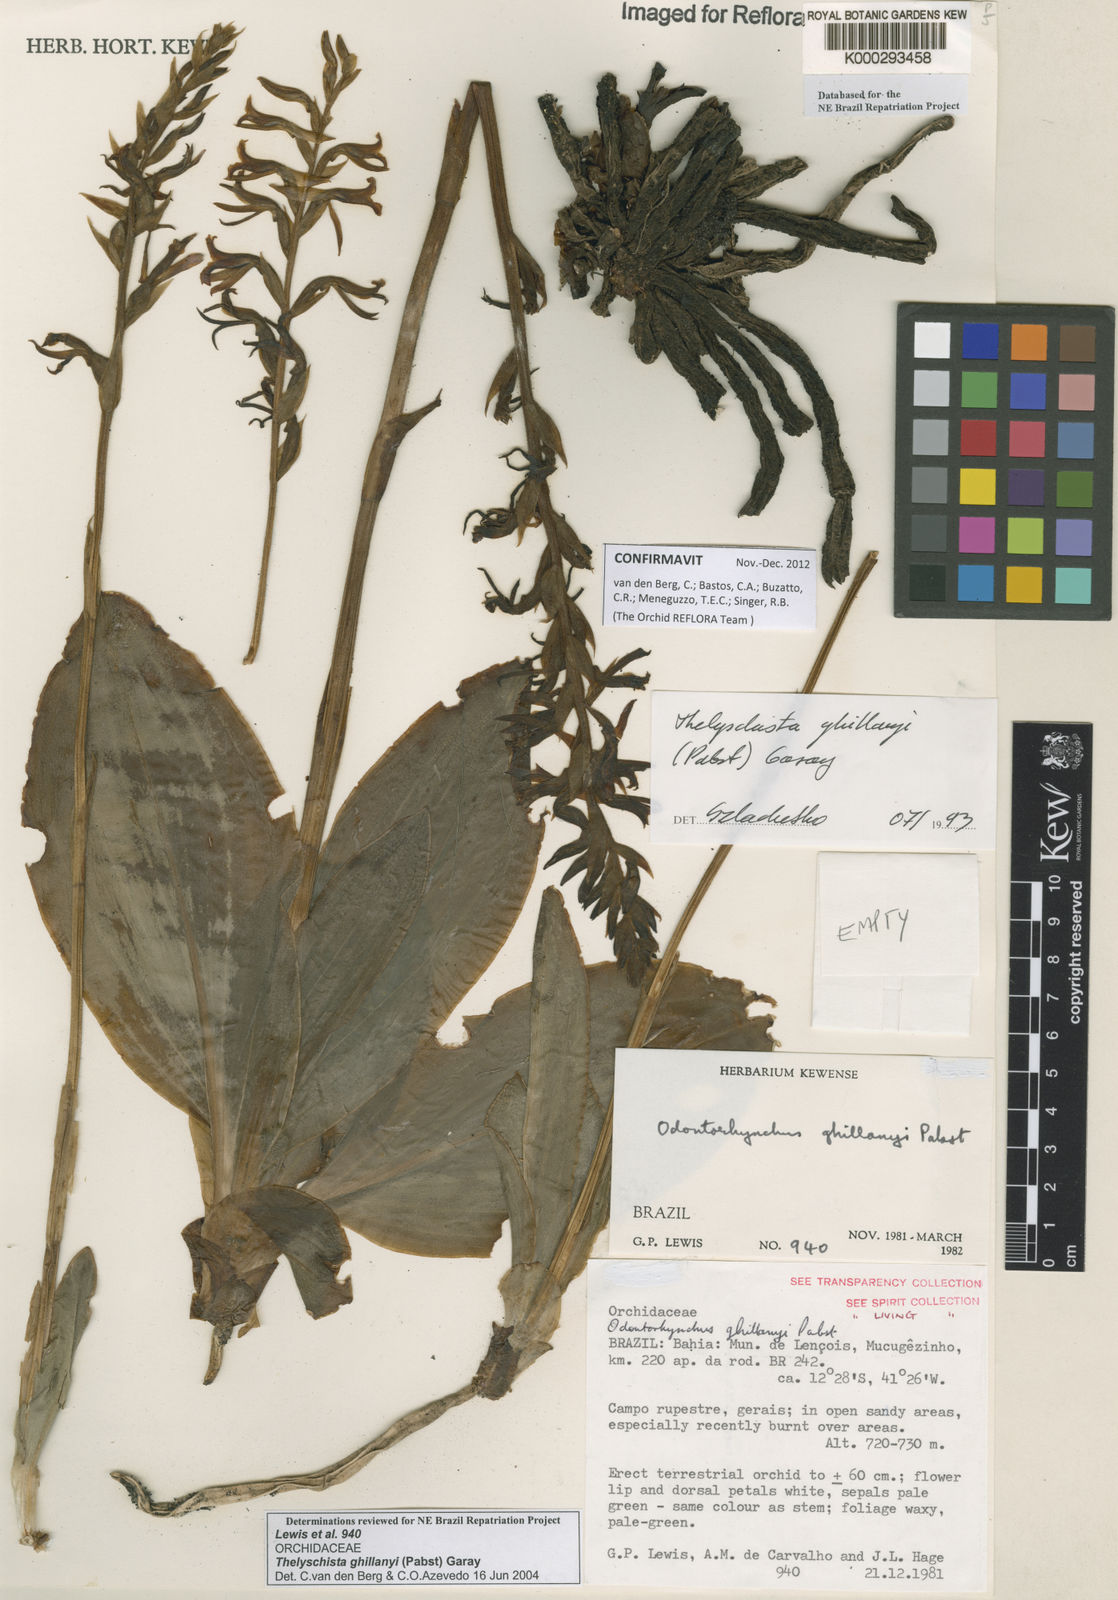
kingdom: Plantae
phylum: Tracheophyta
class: Liliopsida
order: Asparagales
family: Orchidaceae
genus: Thelyschista
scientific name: Thelyschista ghillanyi
